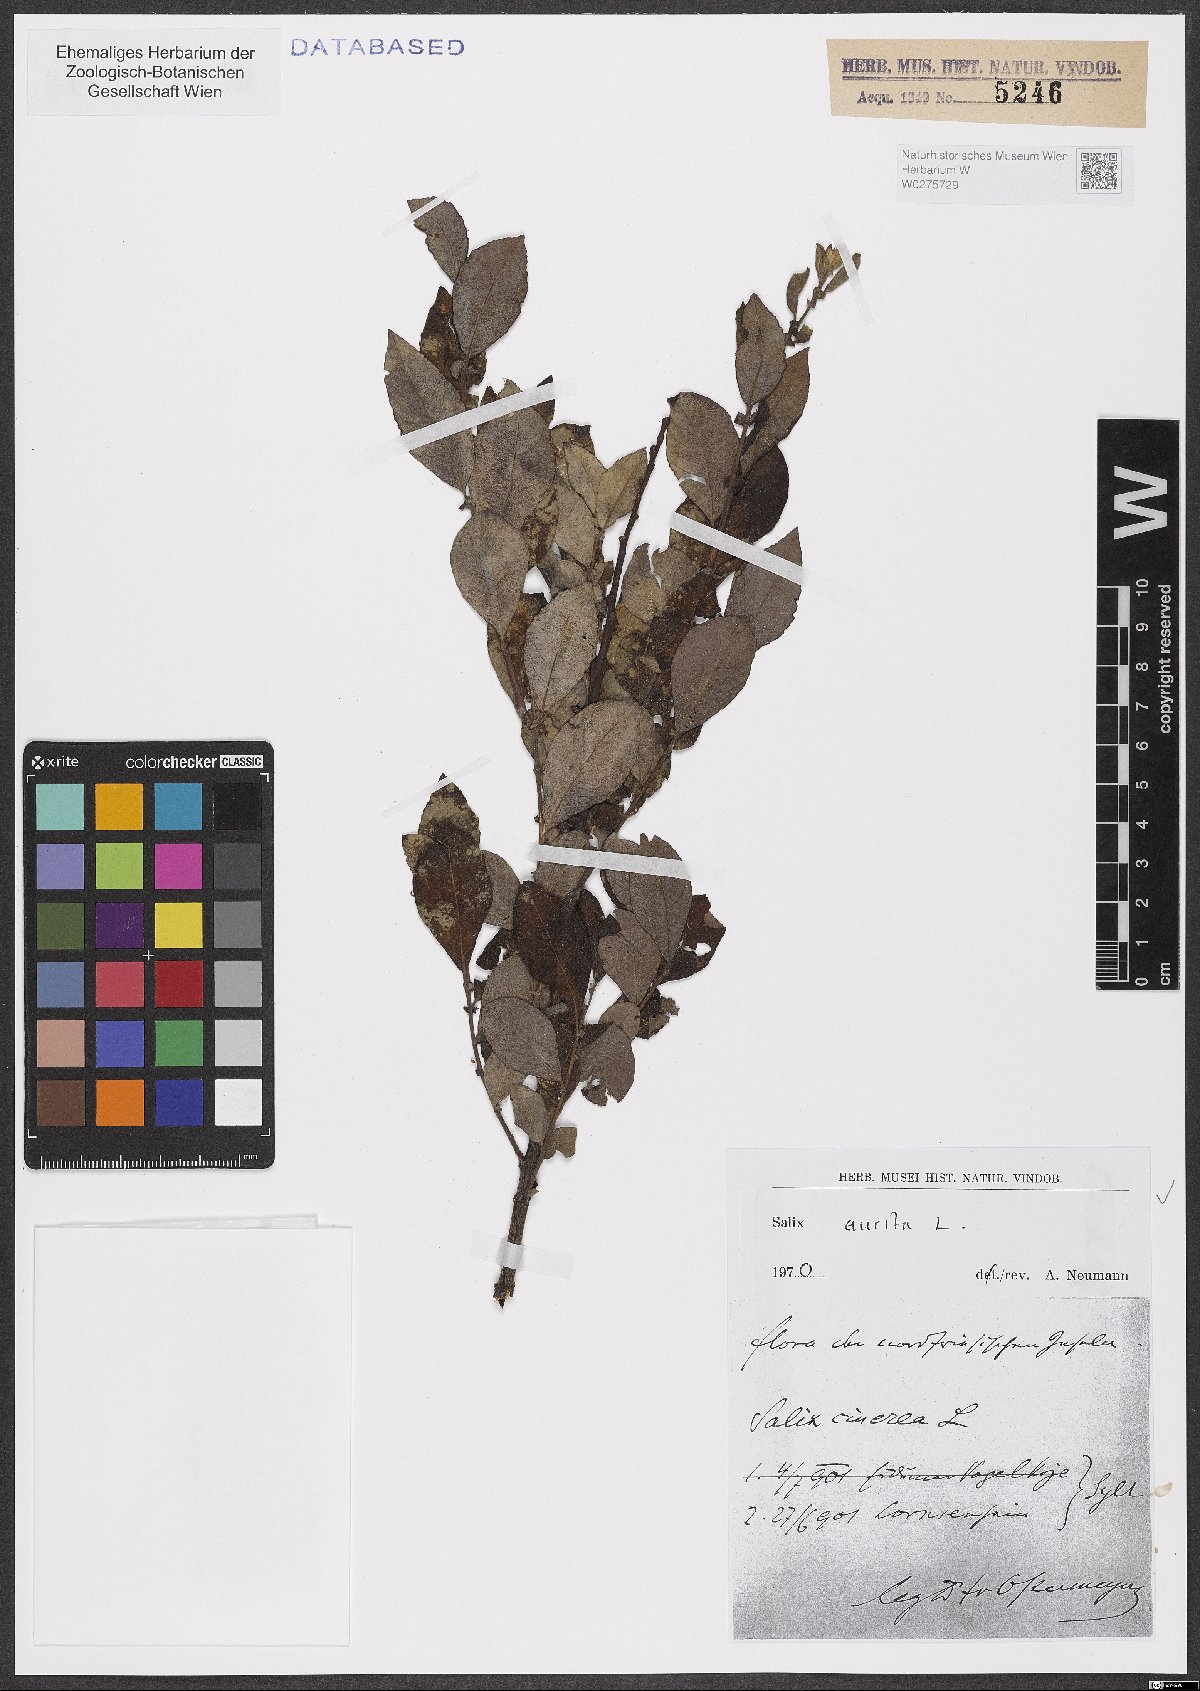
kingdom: Plantae
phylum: Tracheophyta
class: Magnoliopsida
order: Malpighiales
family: Salicaceae
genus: Salix
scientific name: Salix aurita
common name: Eared willow
